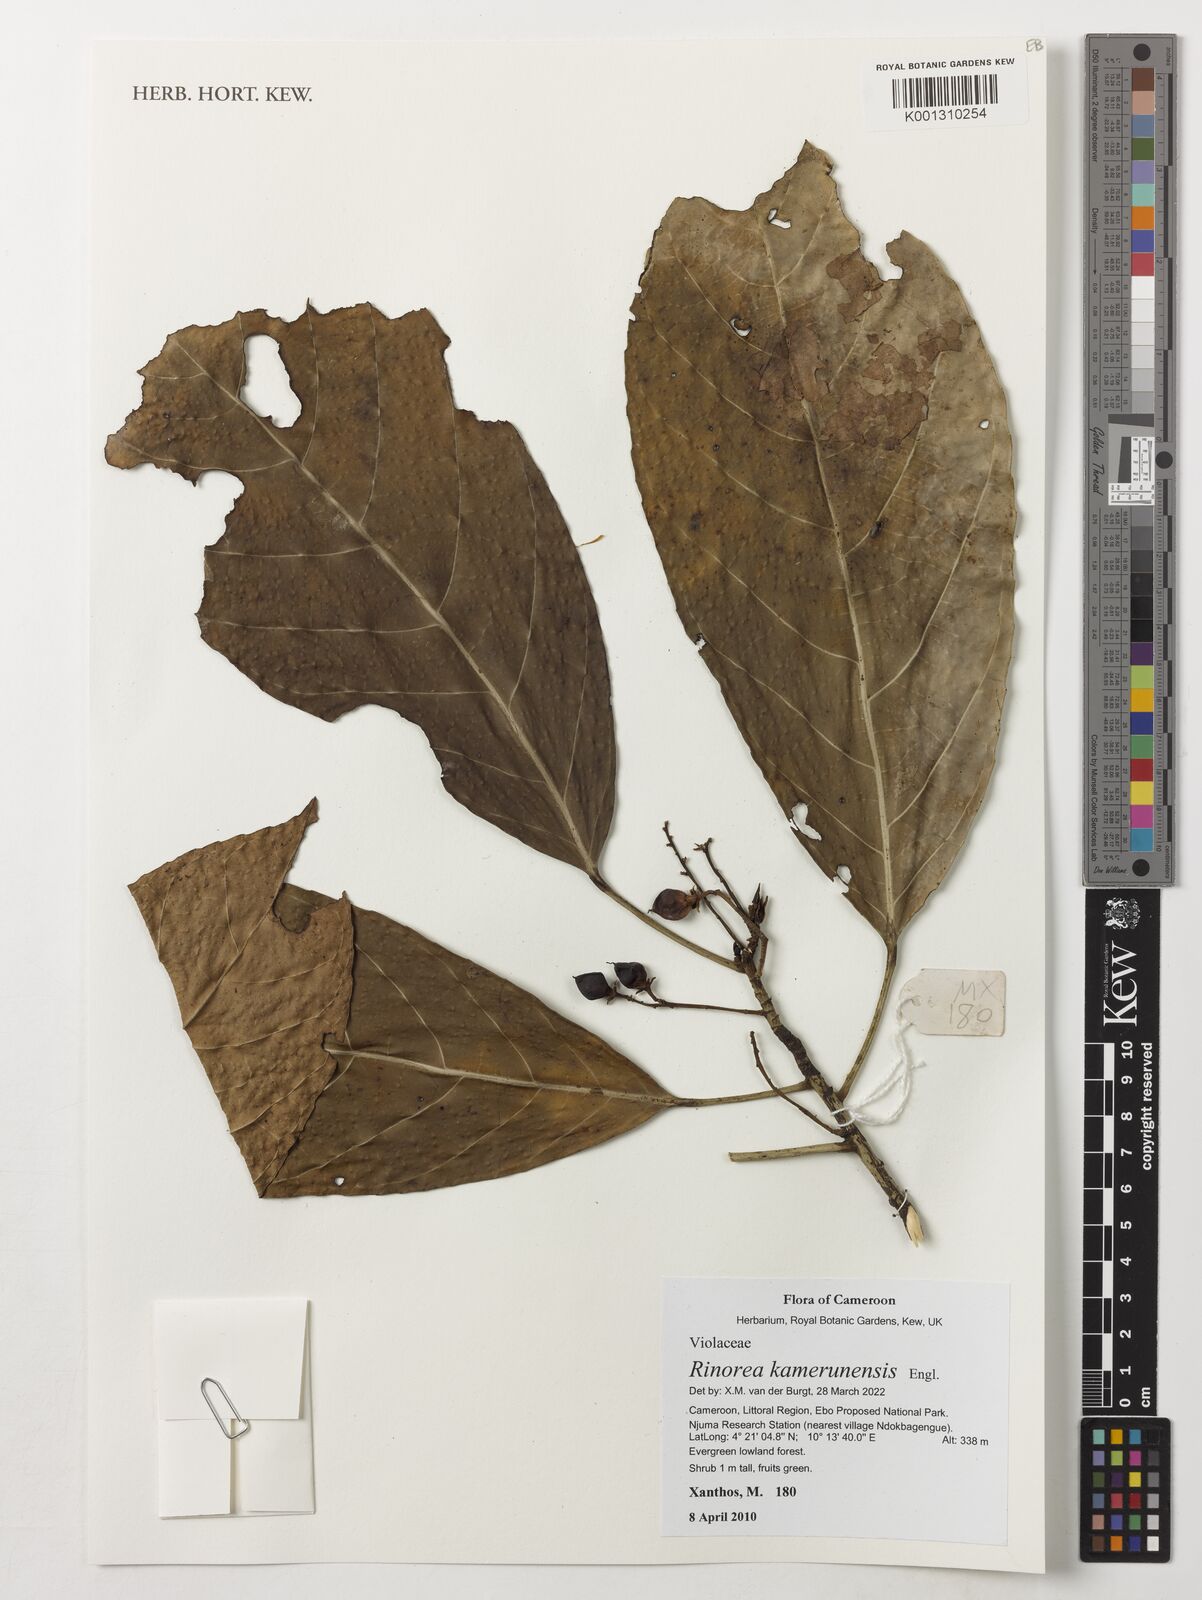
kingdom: Plantae
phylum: Tracheophyta
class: Magnoliopsida
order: Malpighiales
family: Violaceae
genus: Rinorea
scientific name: Rinorea kamerunensis
